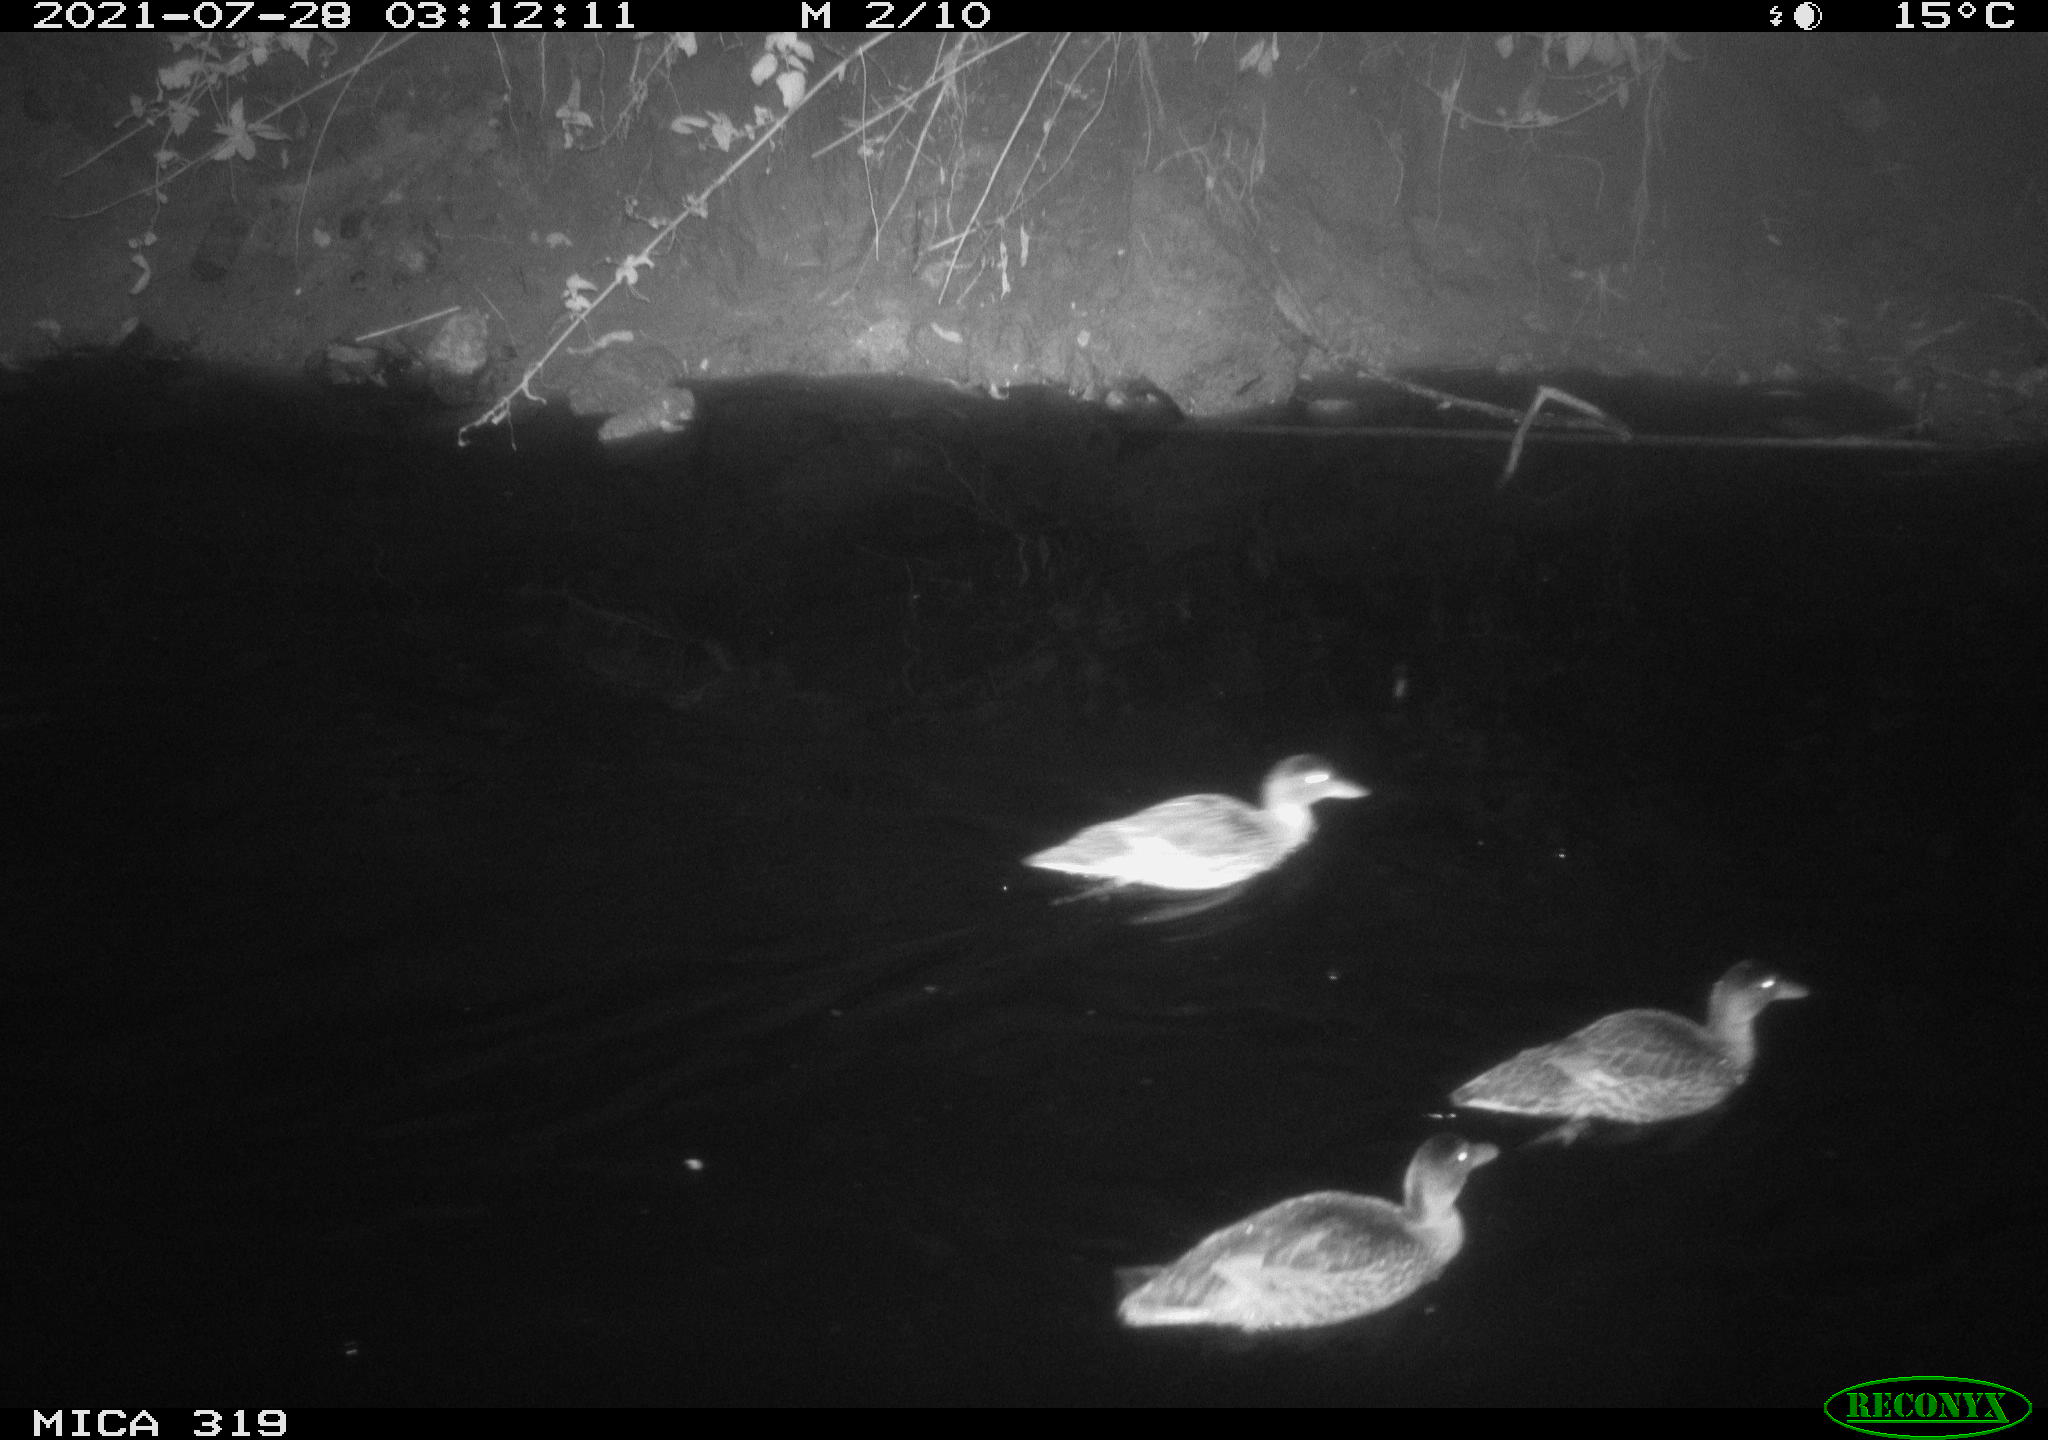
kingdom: Animalia
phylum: Chordata
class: Aves
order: Anseriformes
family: Anatidae
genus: Anas
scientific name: Anas platyrhynchos
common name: Mallard
